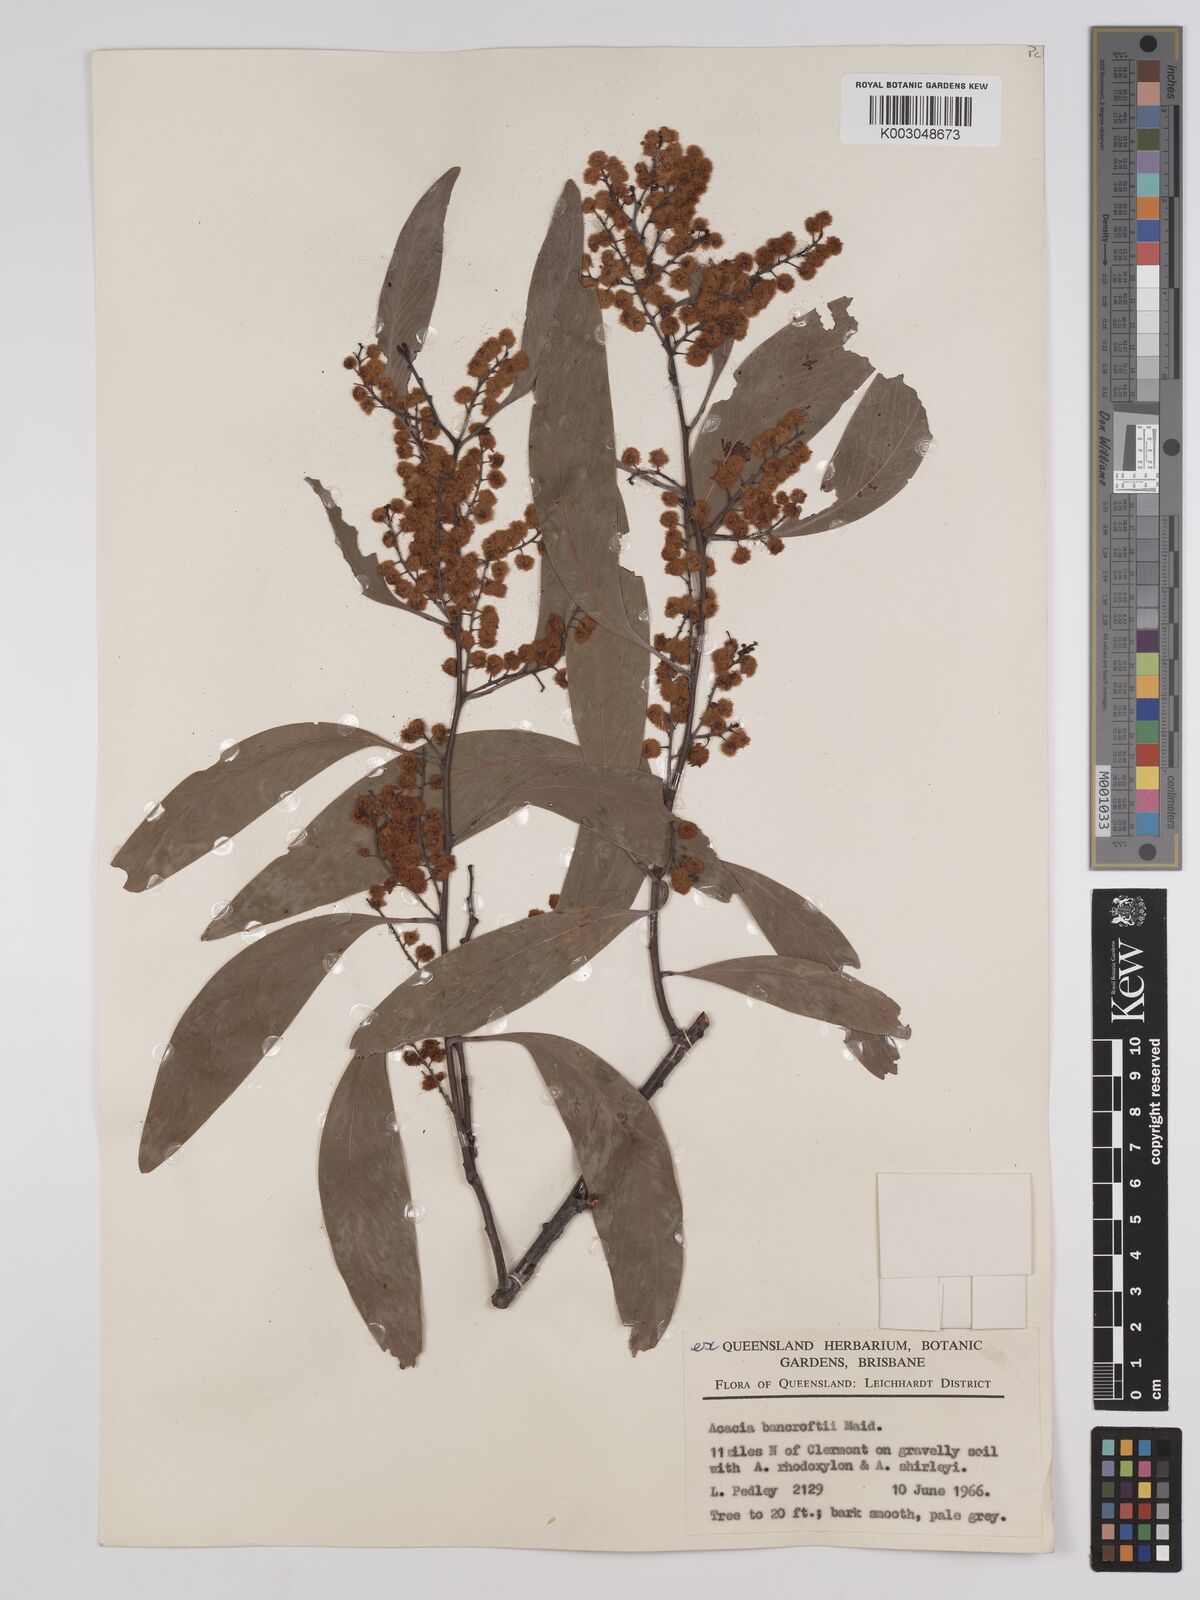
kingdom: Plantae
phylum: Tracheophyta
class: Magnoliopsida
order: Fabales
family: Fabaceae
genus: Acacia
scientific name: Acacia
